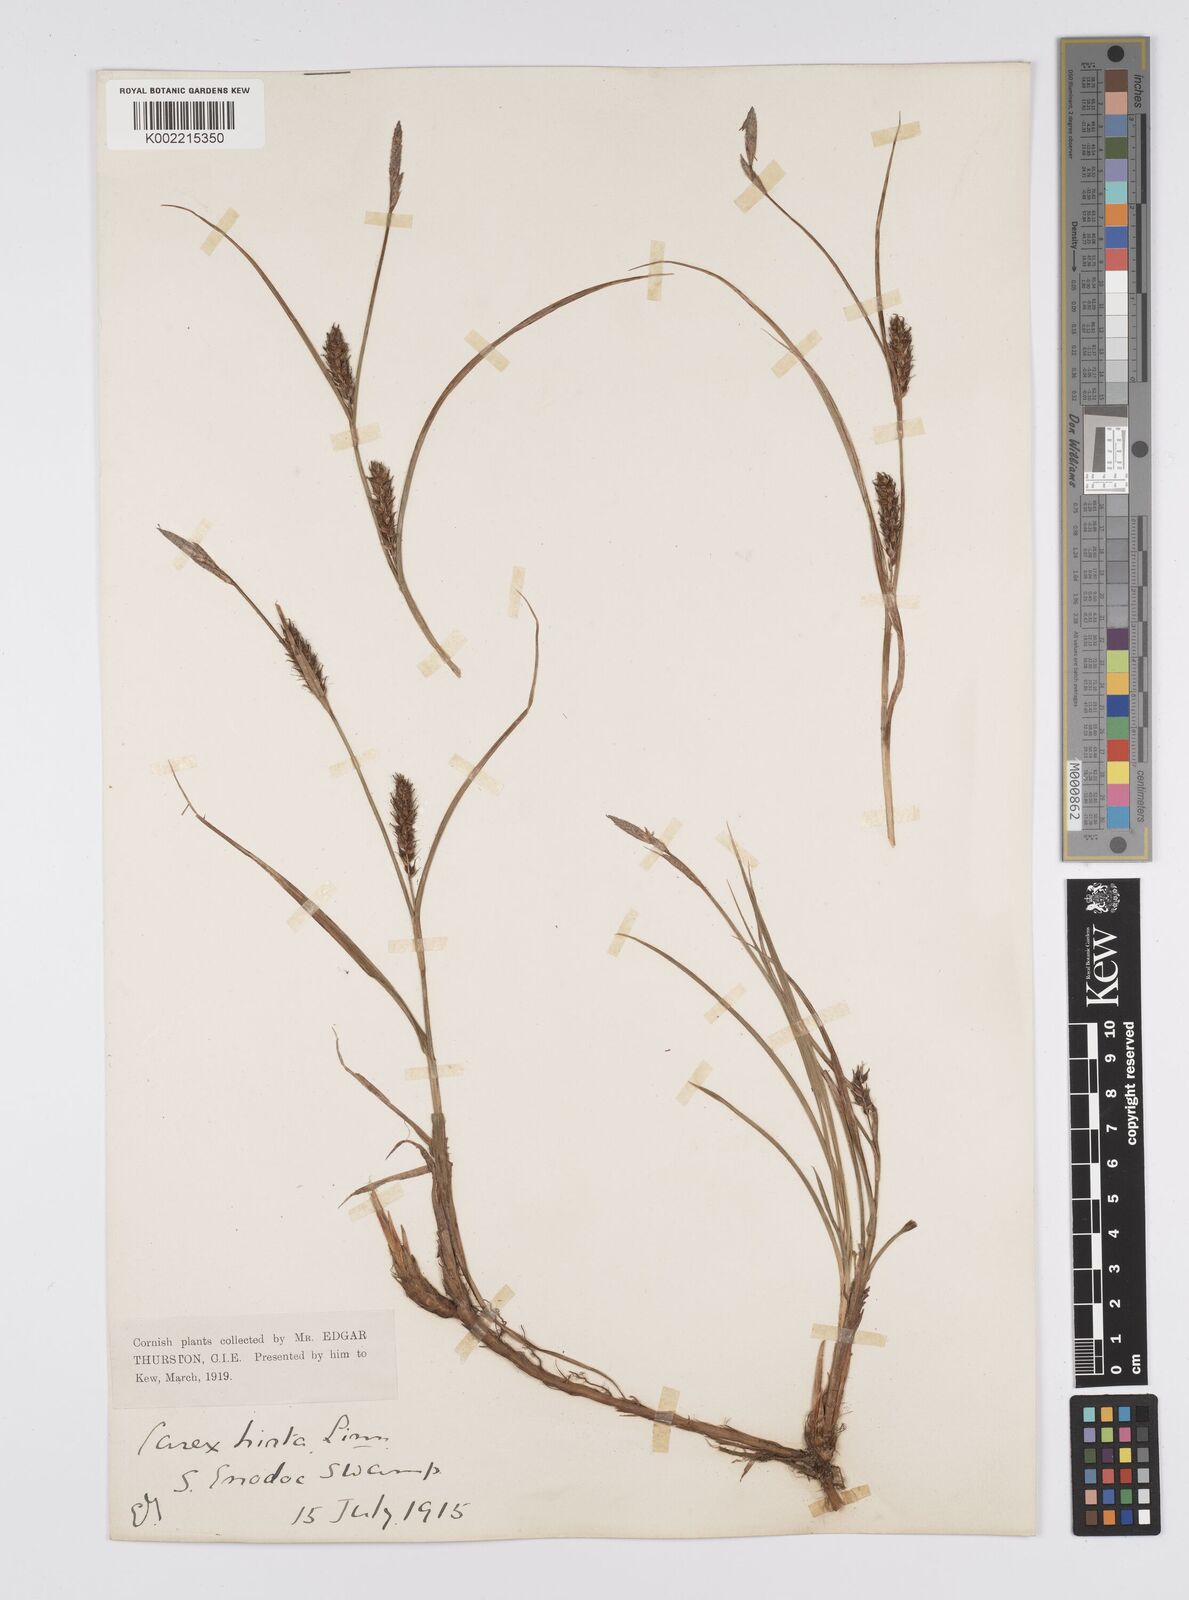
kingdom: Plantae
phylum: Tracheophyta
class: Liliopsida
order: Poales
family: Cyperaceae
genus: Carex
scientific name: Carex hirta
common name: Hairy sedge
